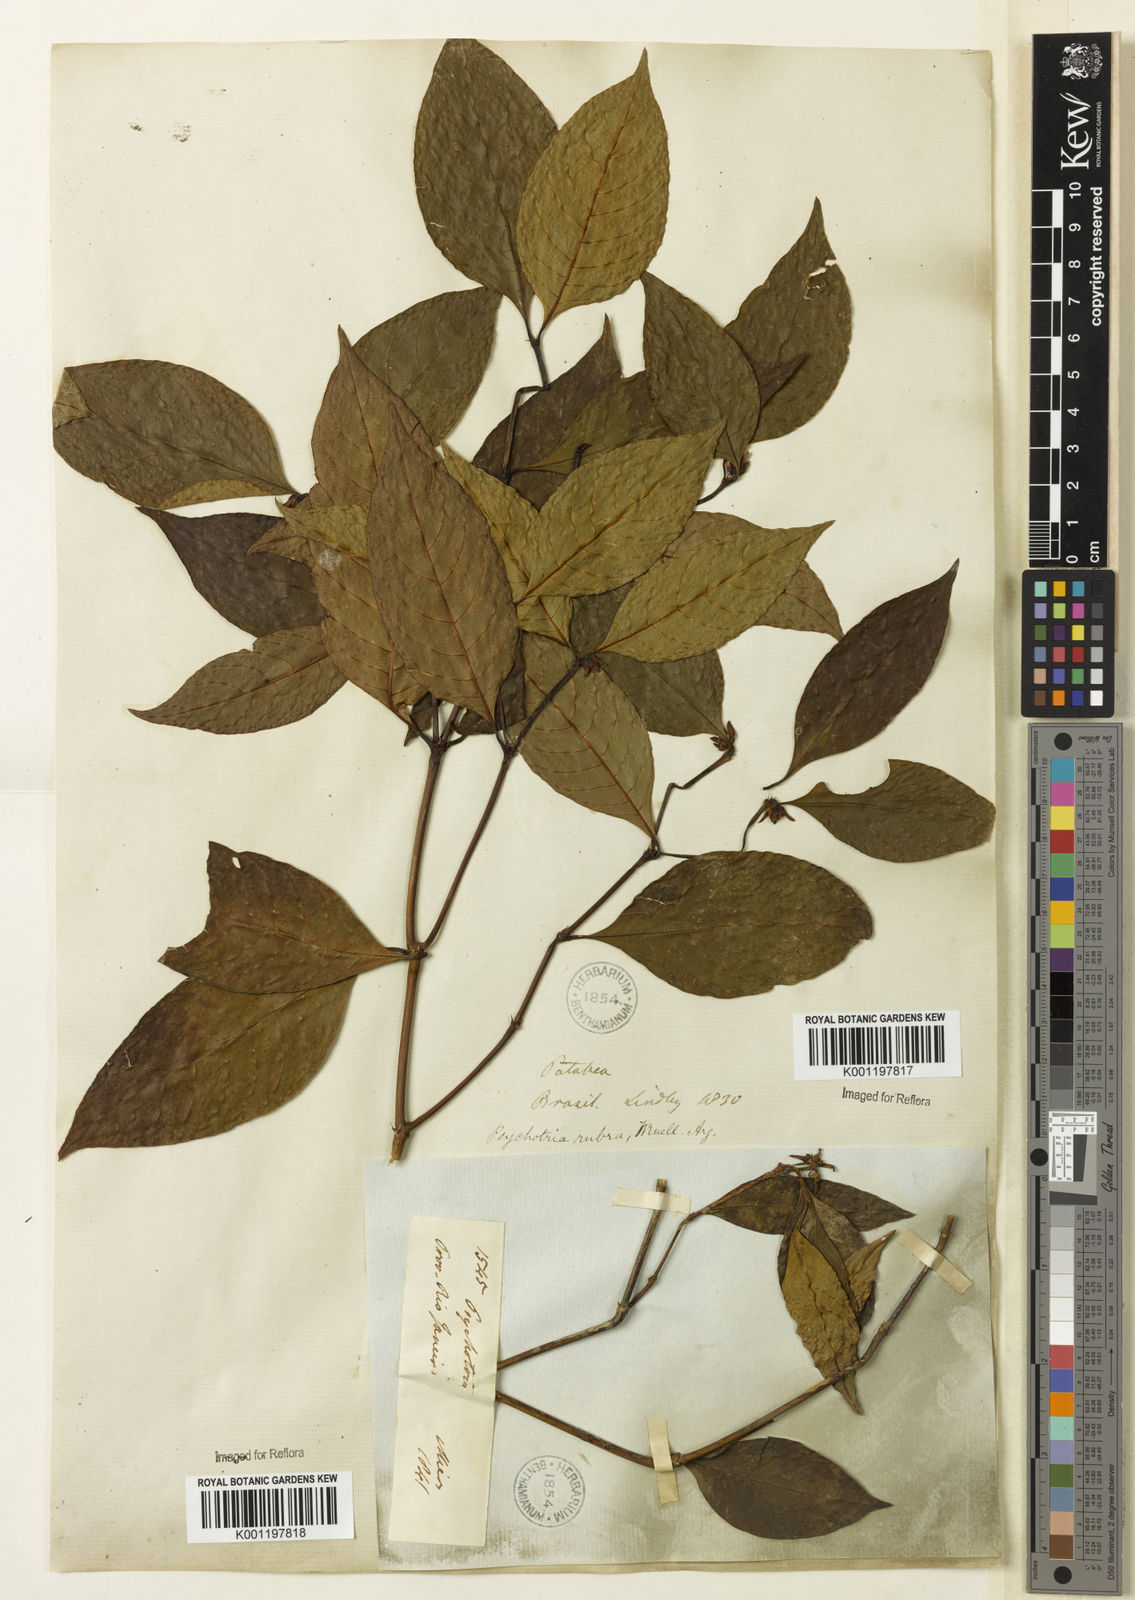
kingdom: Plantae
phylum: Tracheophyta
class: Magnoliopsida
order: Gentianales
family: Rubiaceae
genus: Psychotria
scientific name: Psychotria
